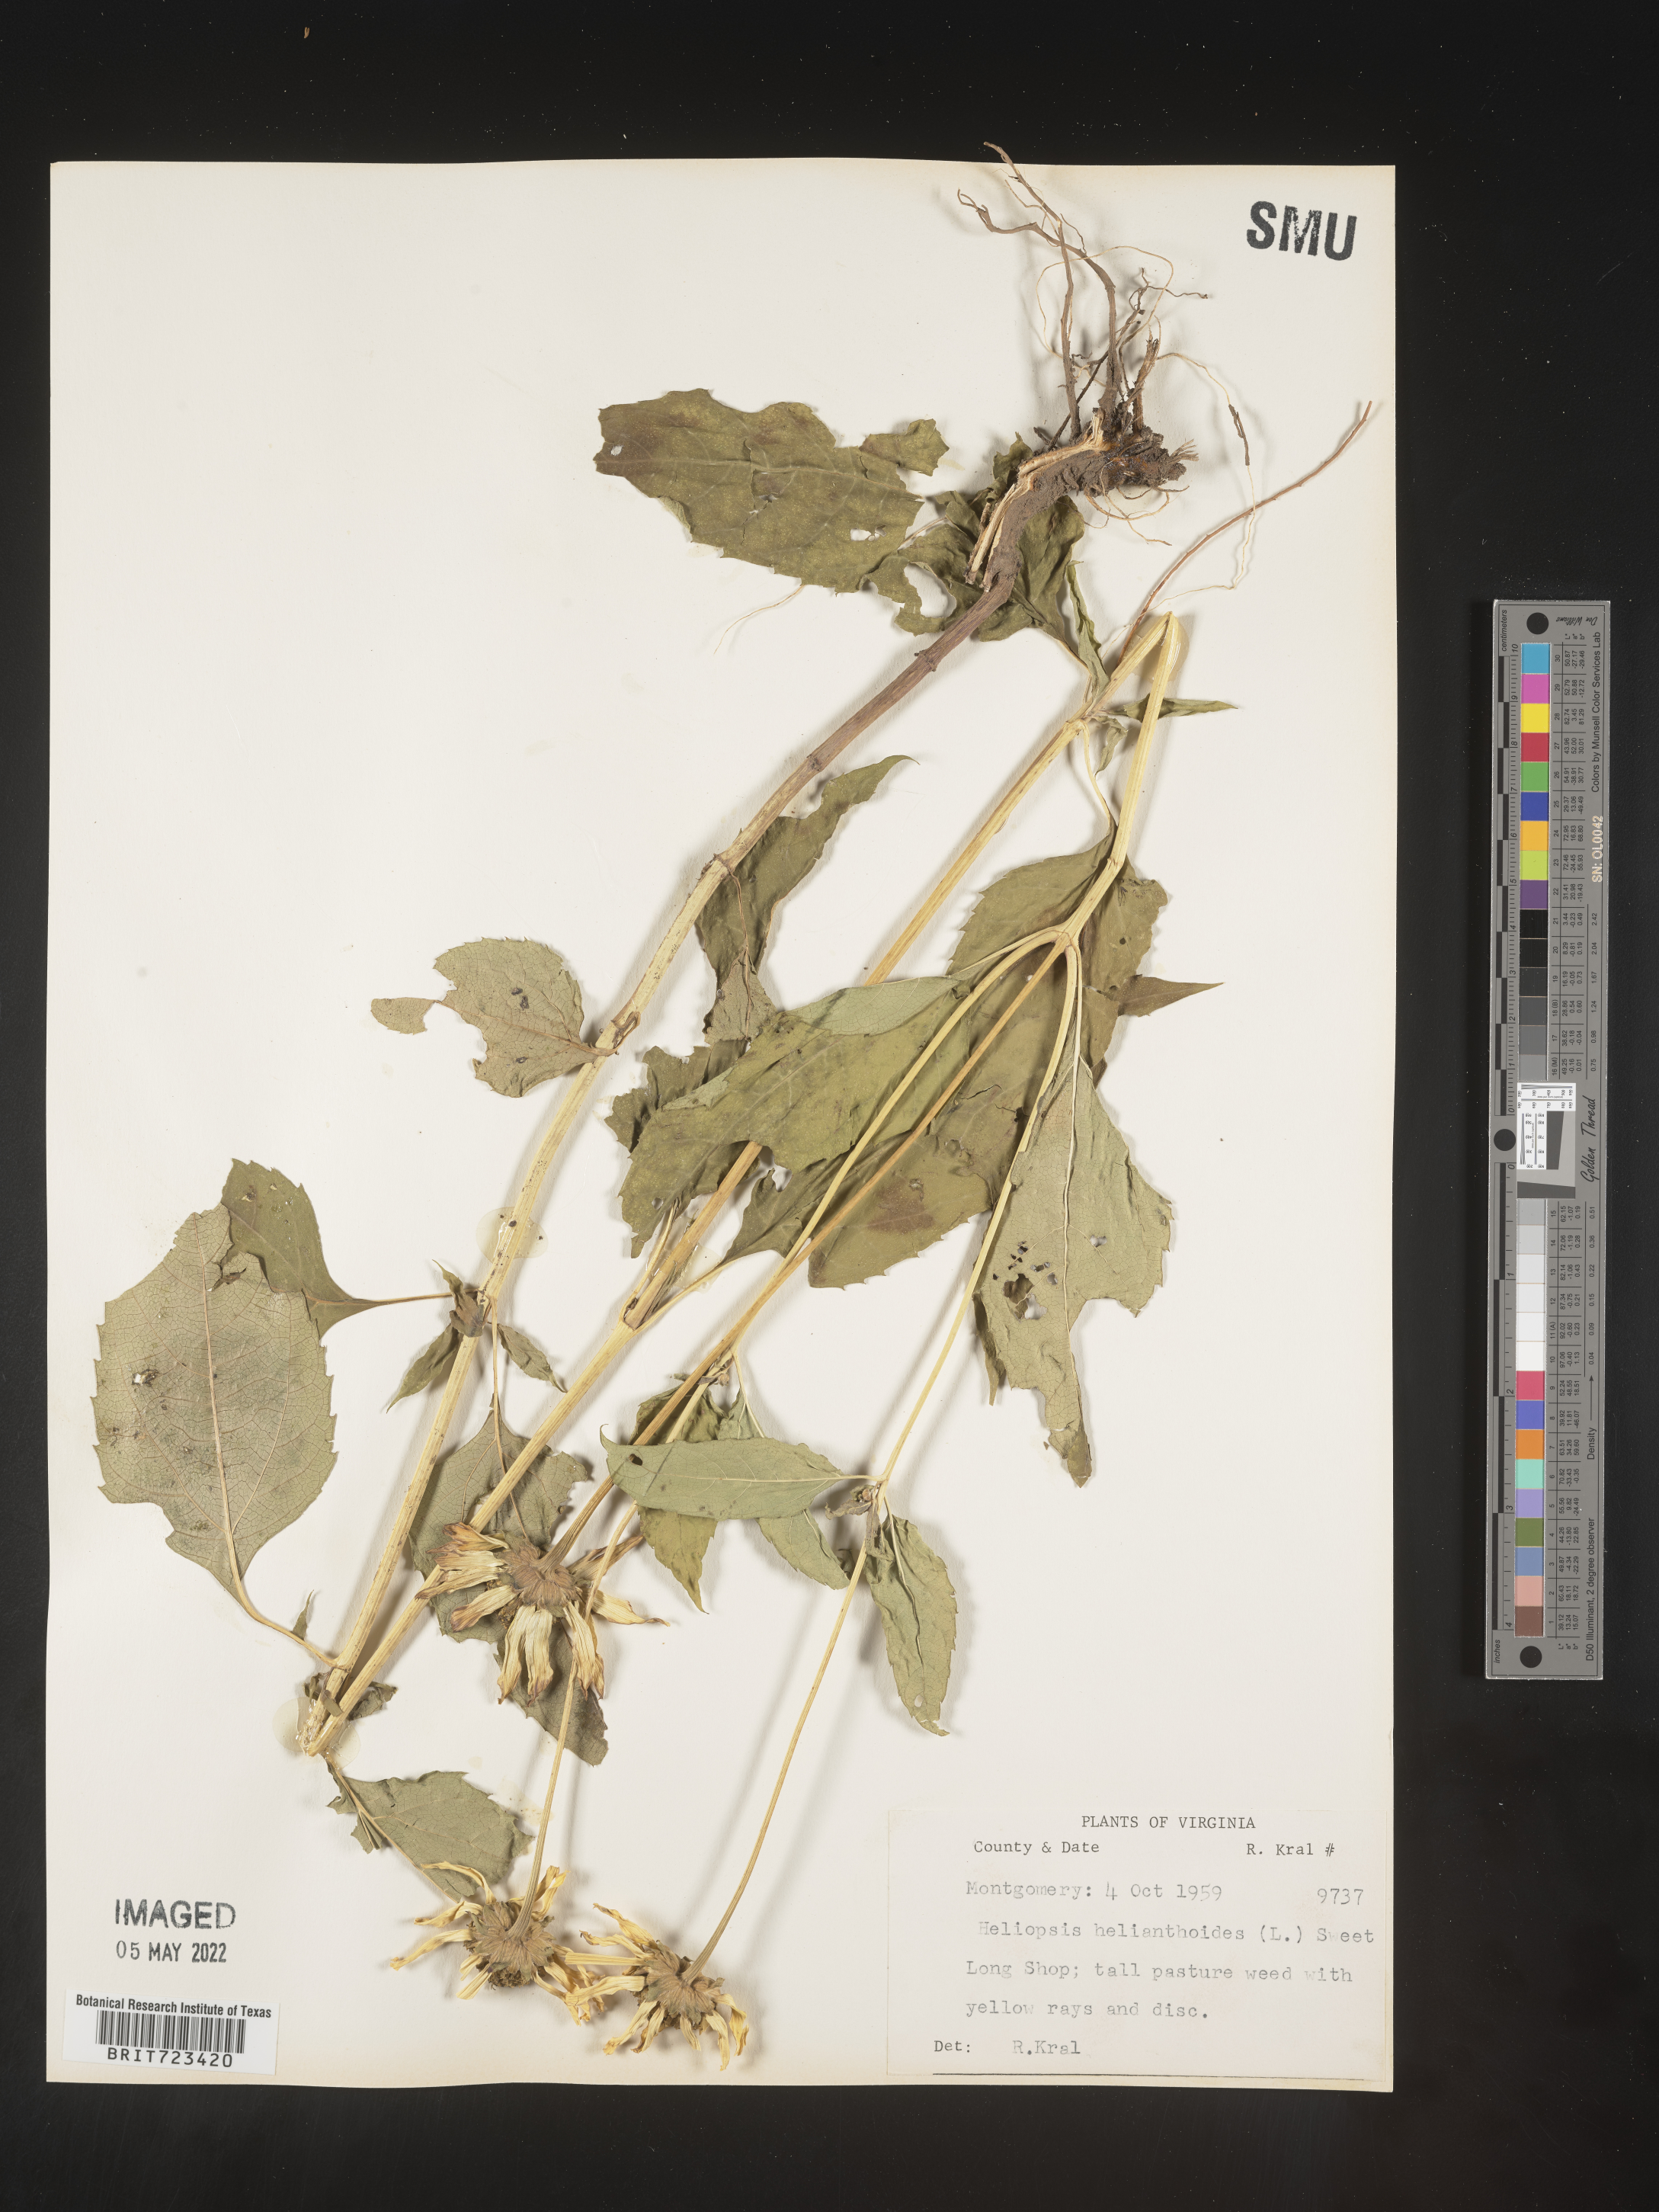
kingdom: Plantae
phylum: Tracheophyta
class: Magnoliopsida
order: Asterales
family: Asteraceae
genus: Heliopsis
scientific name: Heliopsis helianthoides
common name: False sunflower
